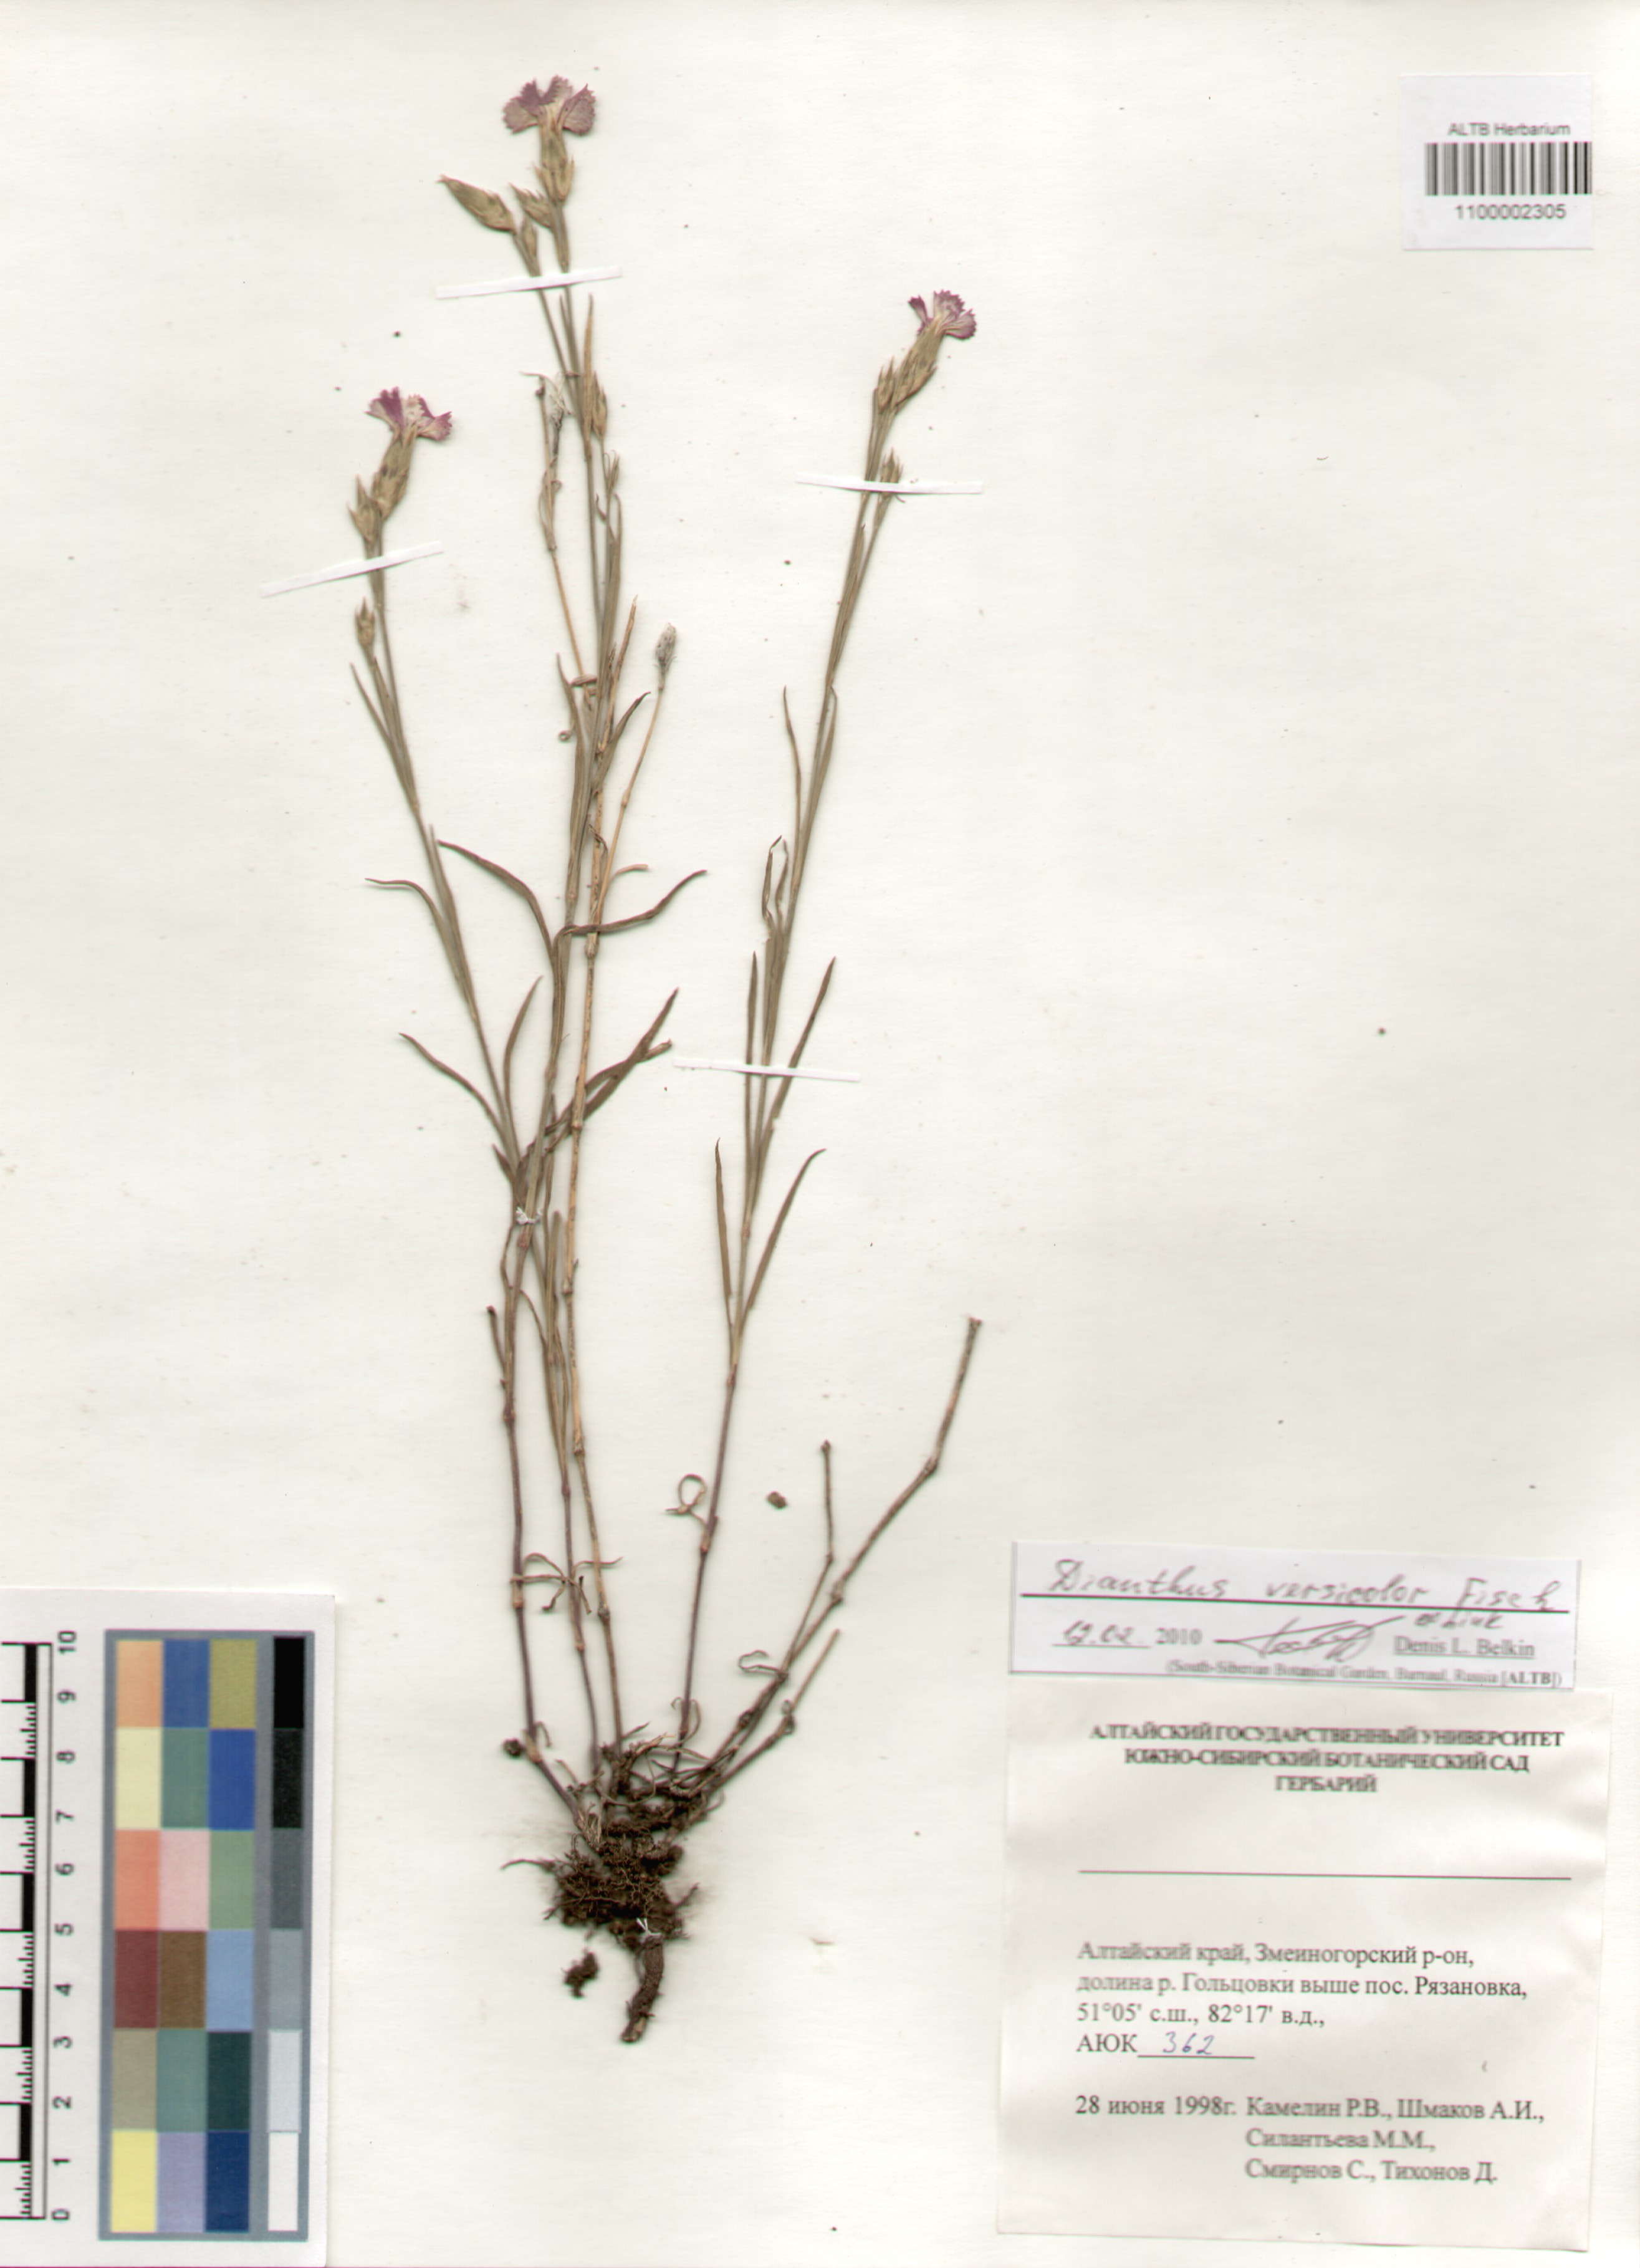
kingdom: Plantae
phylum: Tracheophyta
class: Magnoliopsida
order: Caryophyllales
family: Caryophyllaceae
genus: Dianthus
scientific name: Dianthus chinensis
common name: Rainbow pink
